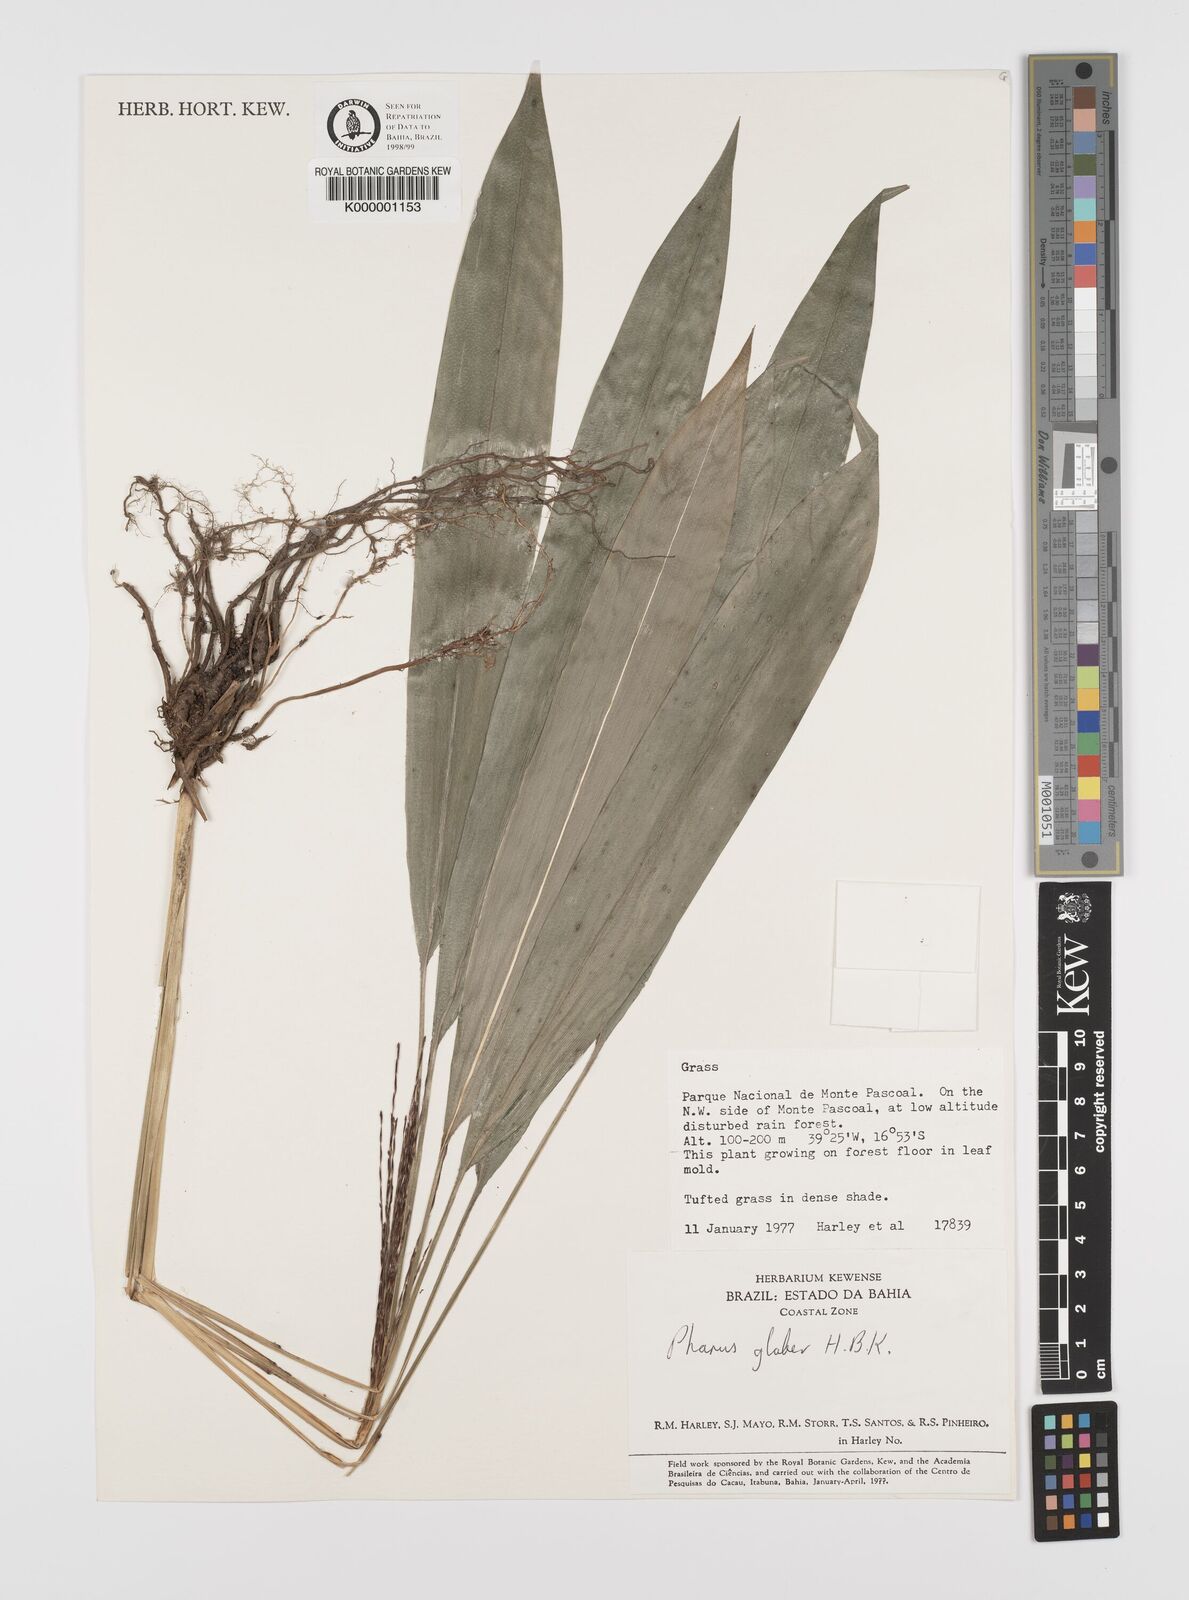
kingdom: Plantae
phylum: Tracheophyta
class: Liliopsida
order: Poales
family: Poaceae
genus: Pharus
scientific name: Pharus lappulaceus
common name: Creeping leafstalk grass
